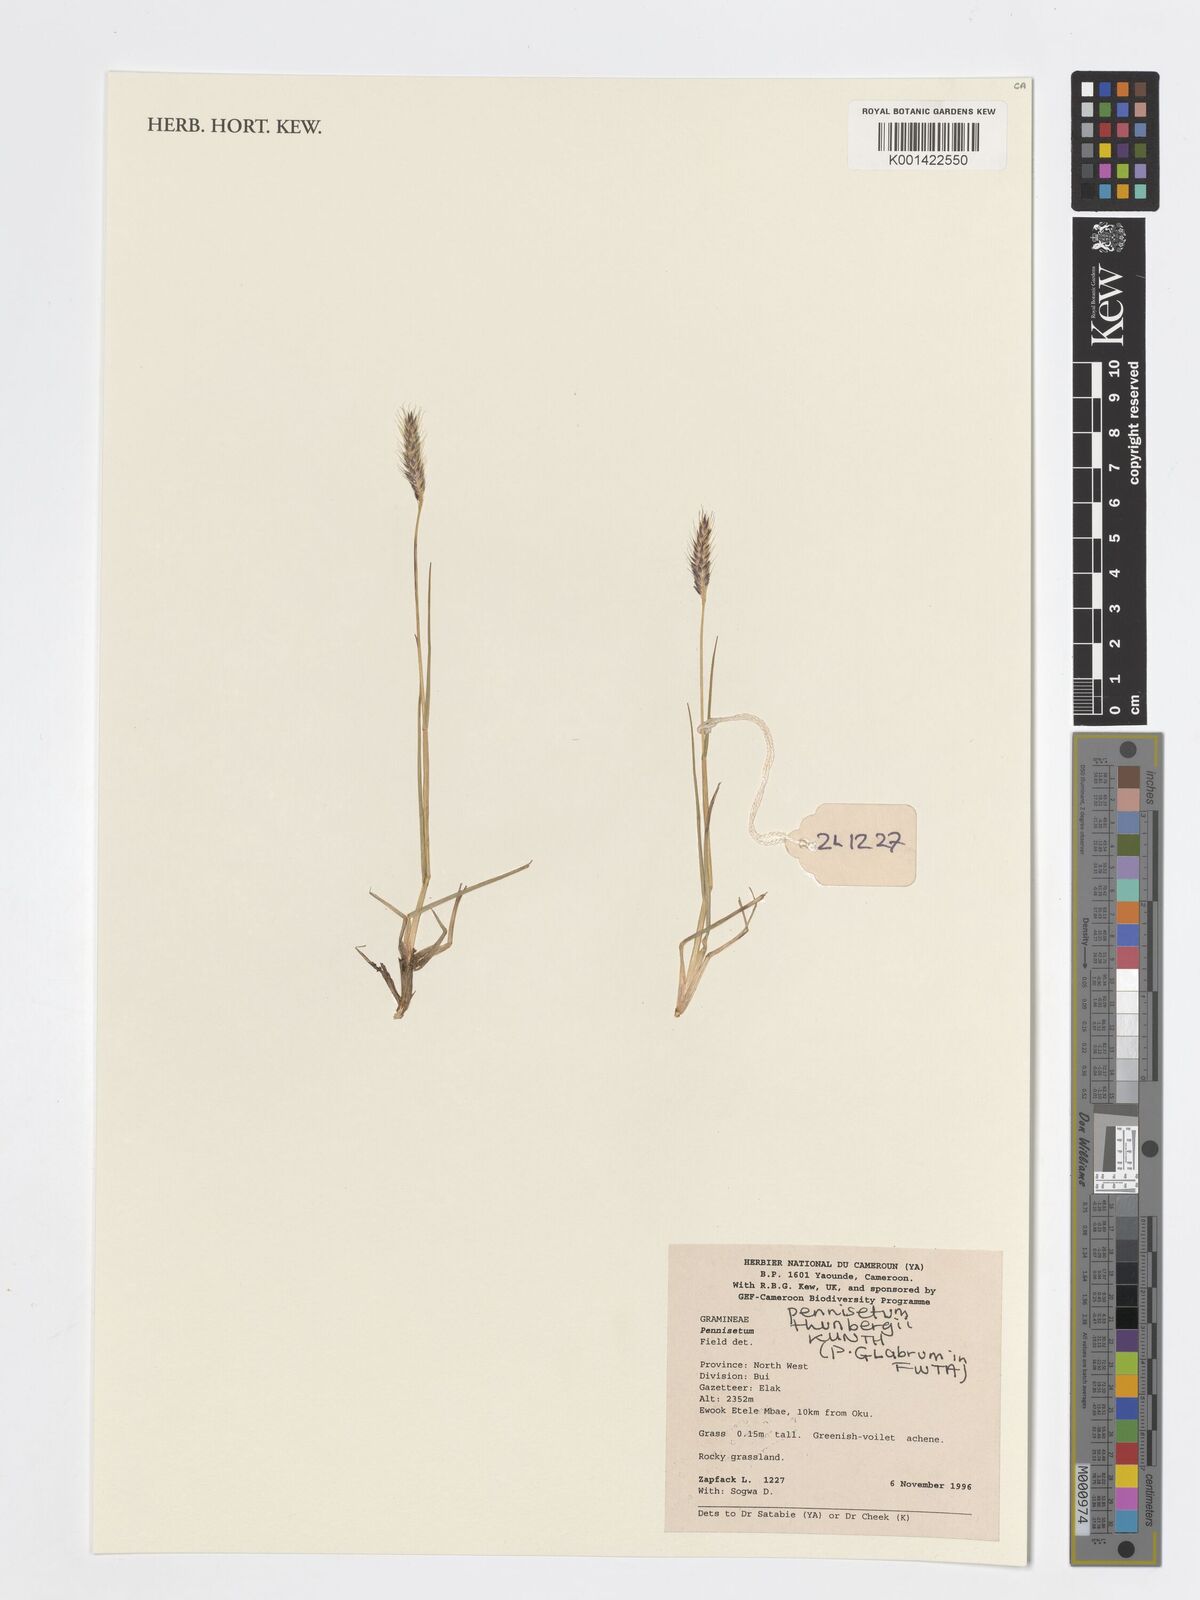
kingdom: Plantae
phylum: Tracheophyta
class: Liliopsida
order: Poales
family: Poaceae
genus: Cenchrus
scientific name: Cenchrus geniculatus
